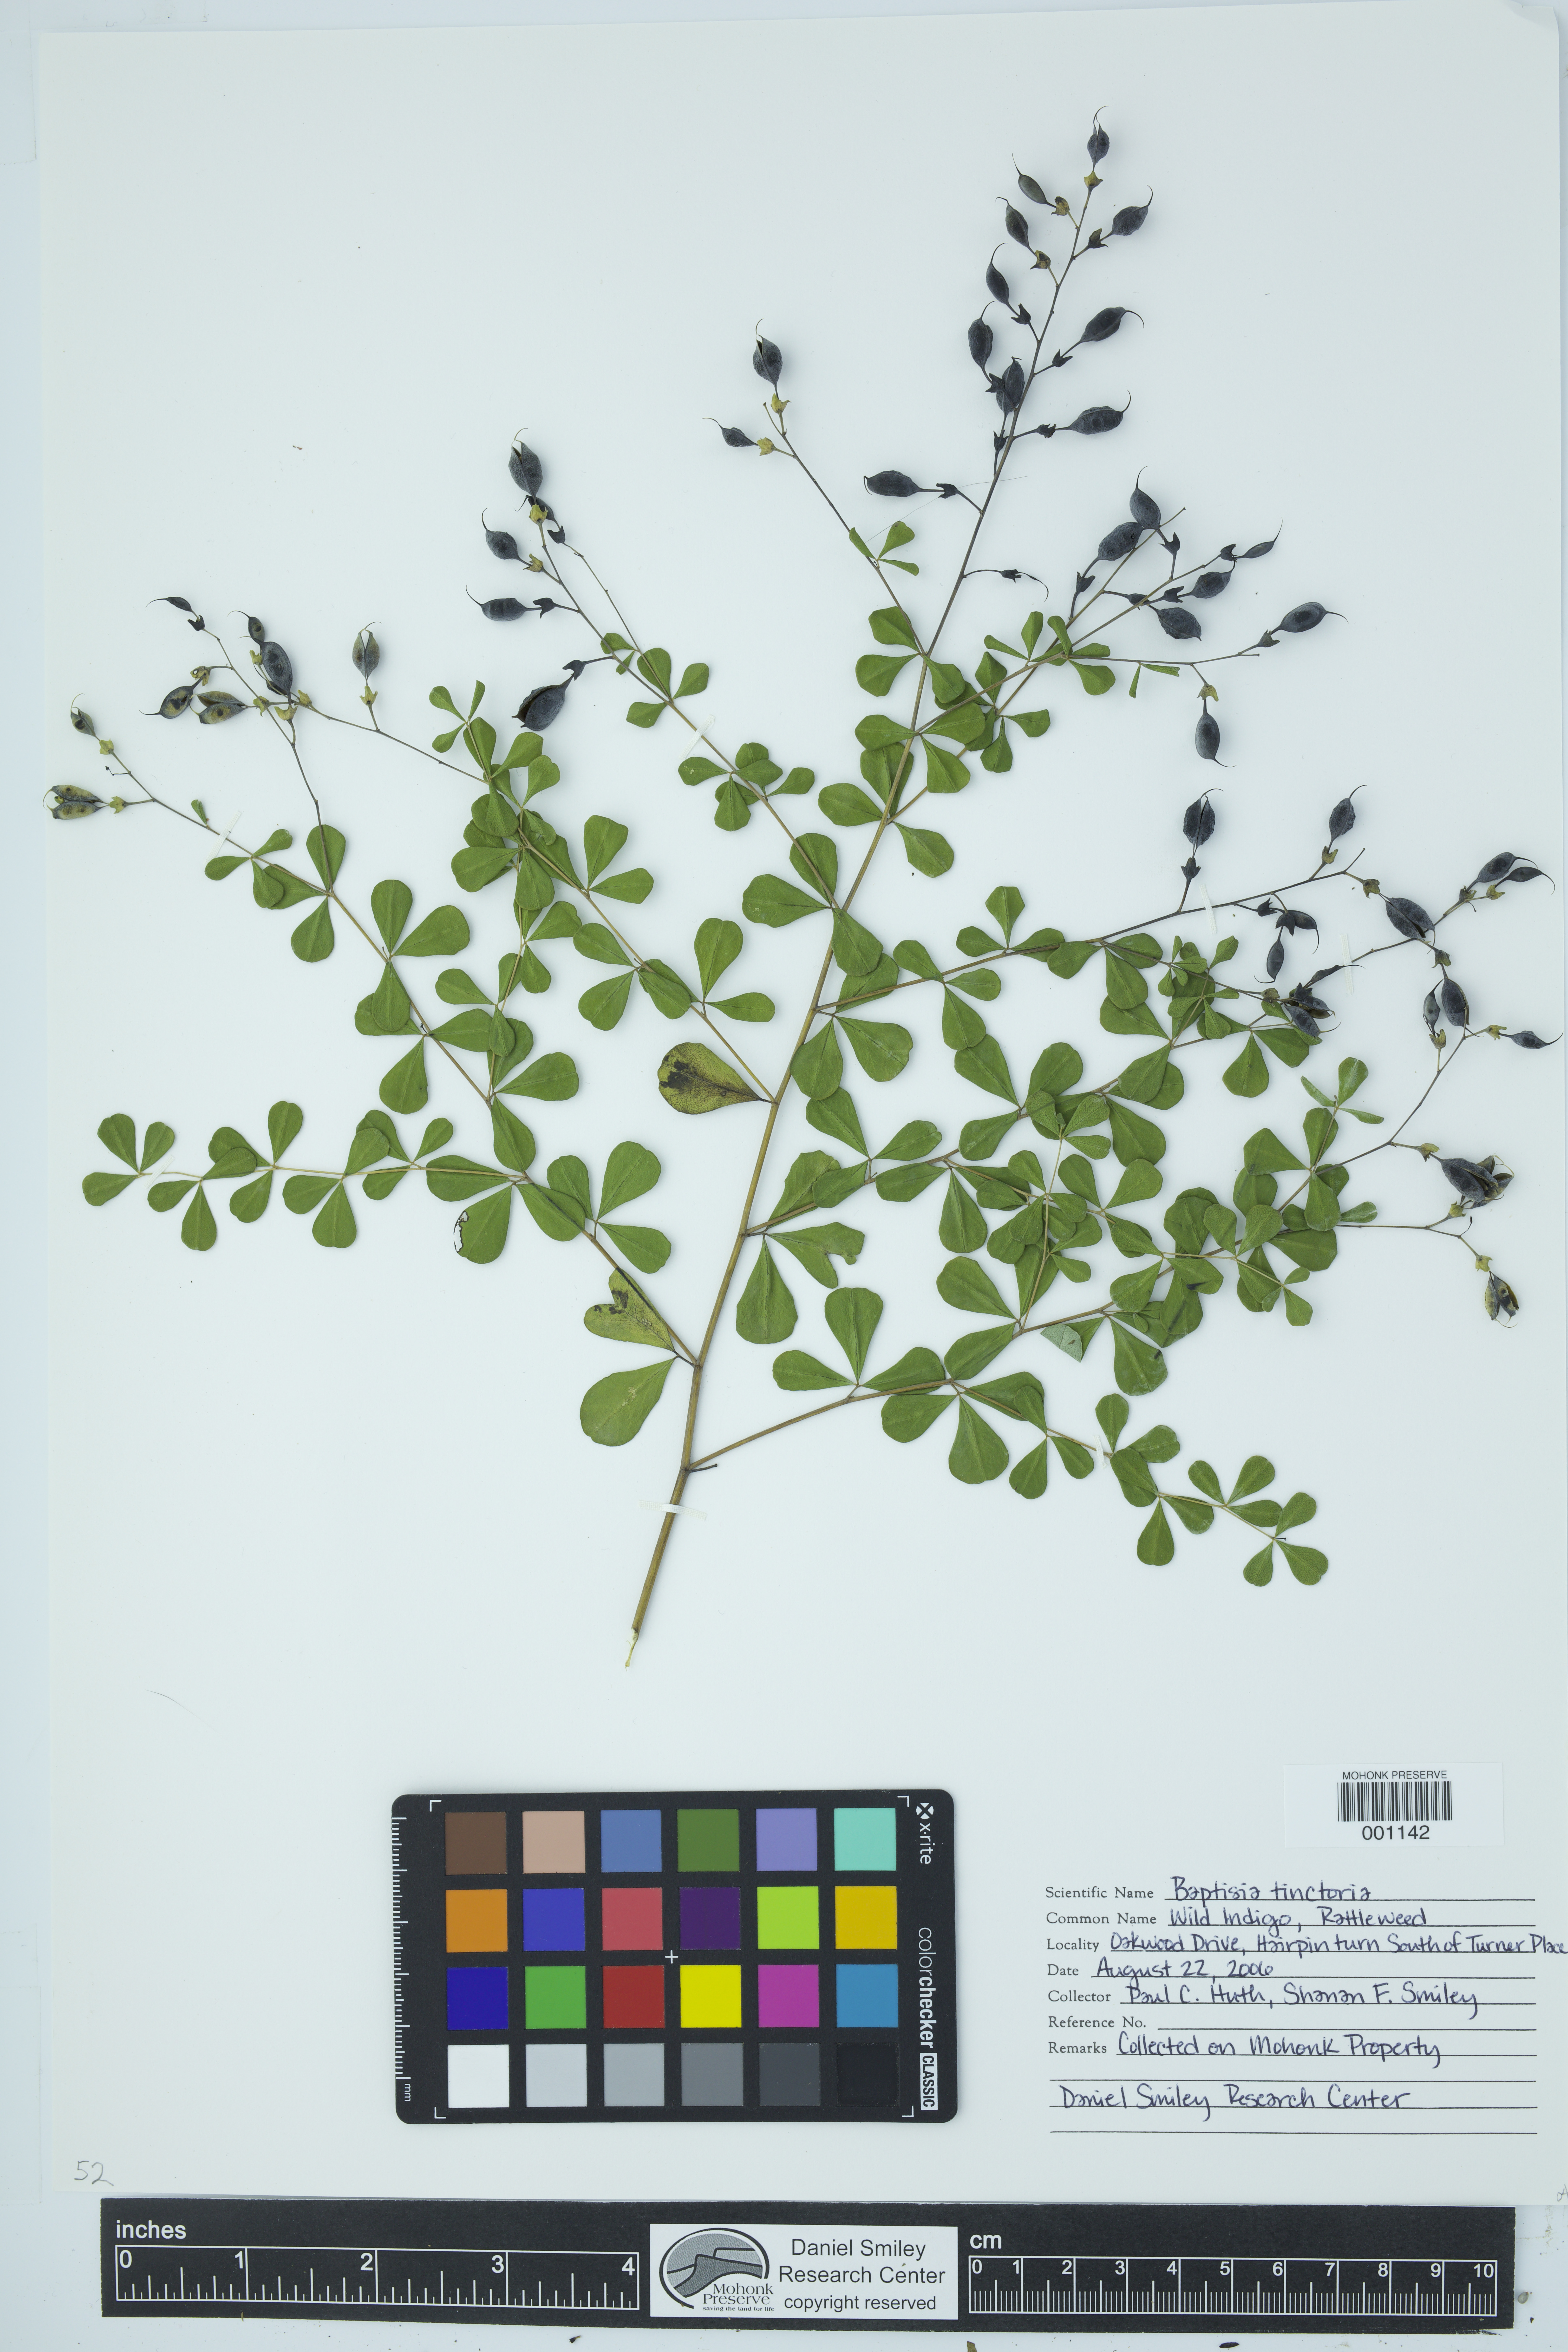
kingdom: Plantae
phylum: Tracheophyta
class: Magnoliopsida
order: Fabales
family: Fabaceae
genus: Baptisia
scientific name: Baptisia tinctoria
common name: Wild indigo
